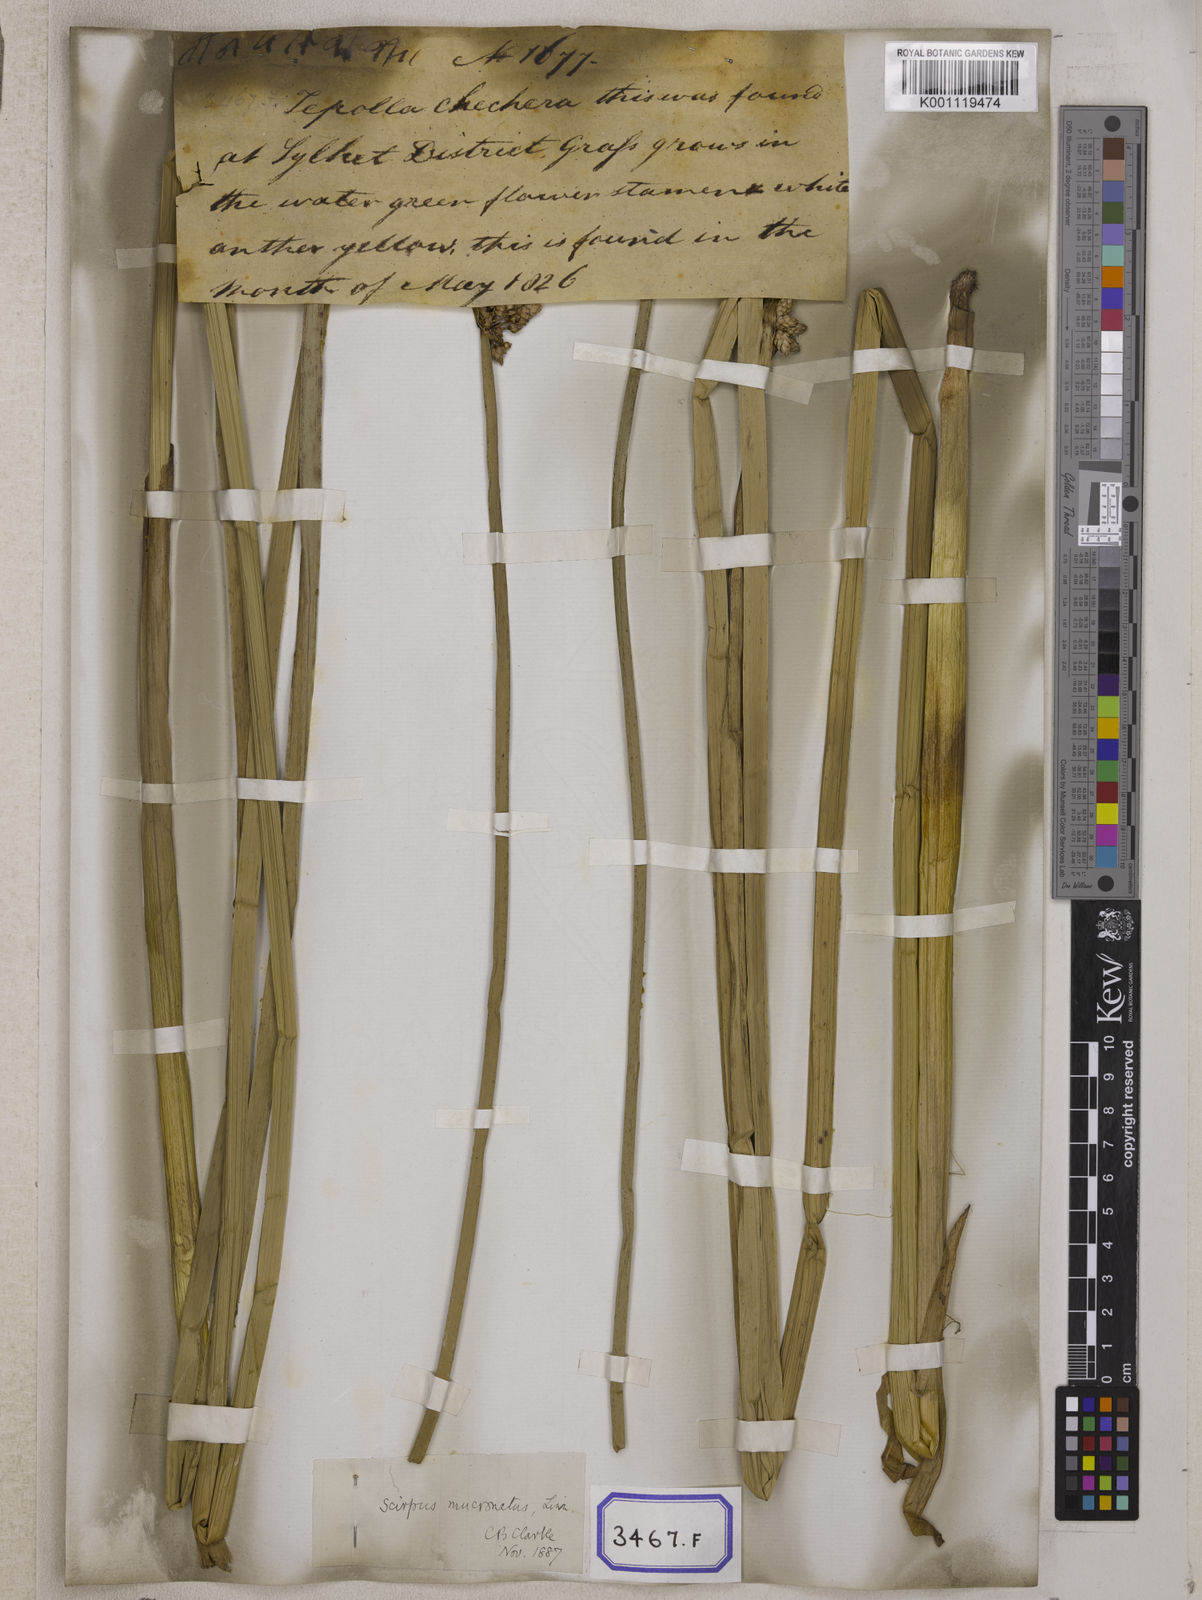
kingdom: Plantae
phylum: Tracheophyta
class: Liliopsida
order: Poales
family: Cyperaceae
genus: Scirpus
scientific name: Scirpus
